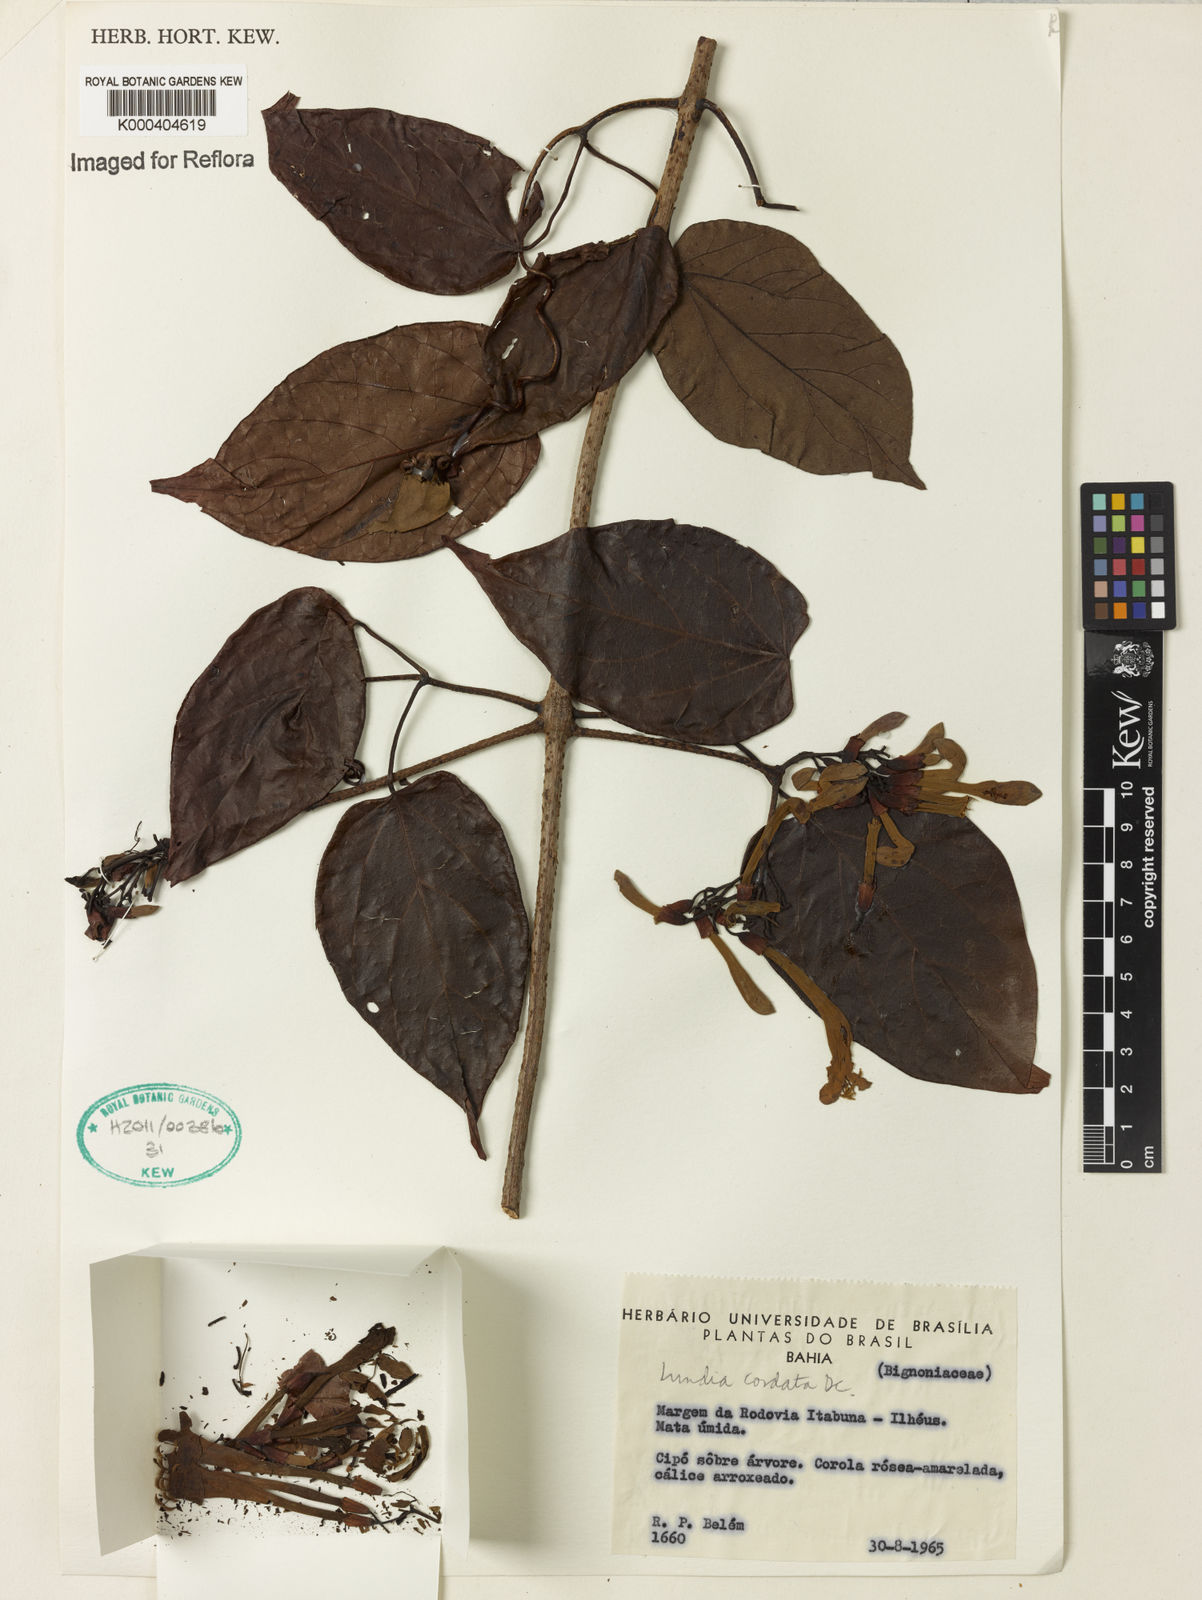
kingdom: Plantae
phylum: Tracheophyta
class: Magnoliopsida
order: Lamiales
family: Bignoniaceae
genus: Lundia
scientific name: Lundia corymbifera
